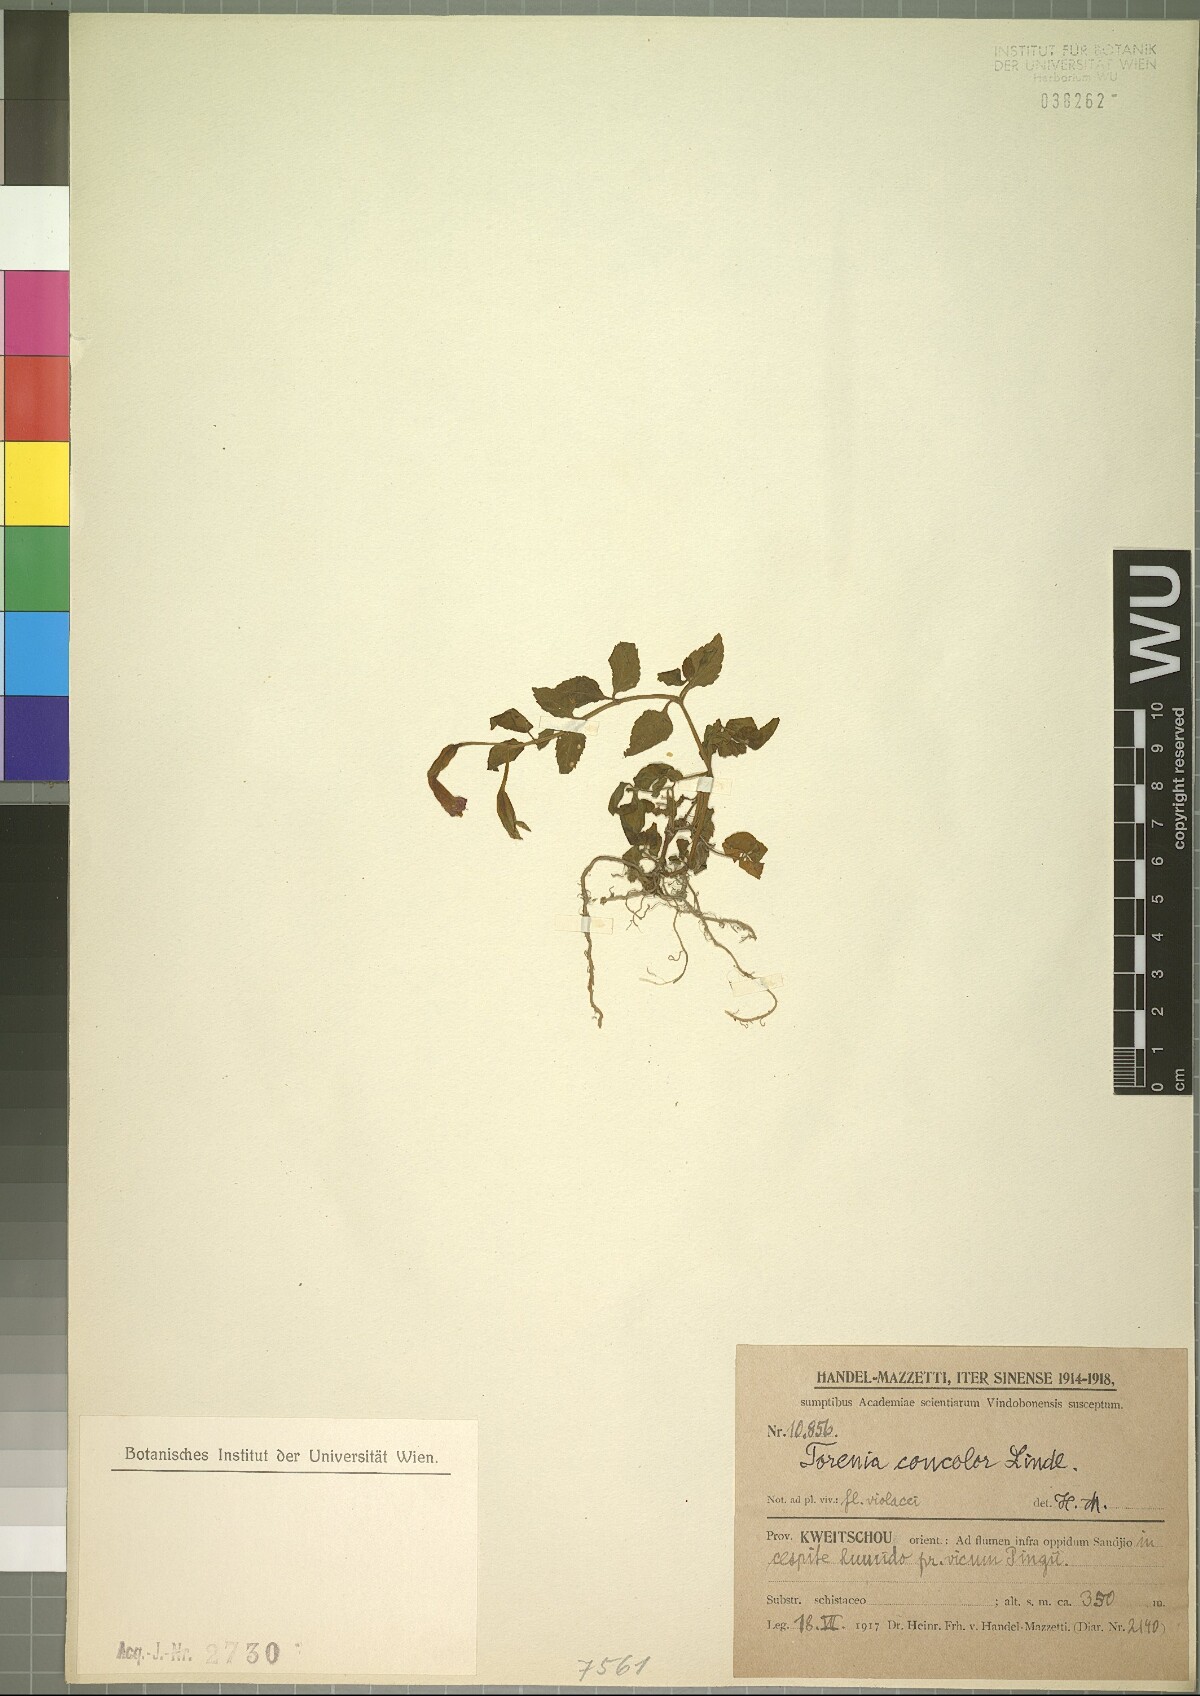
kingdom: Plantae
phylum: Tracheophyta
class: Magnoliopsida
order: Lamiales
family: Linderniaceae
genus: Torenia
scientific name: Torenia concolor
